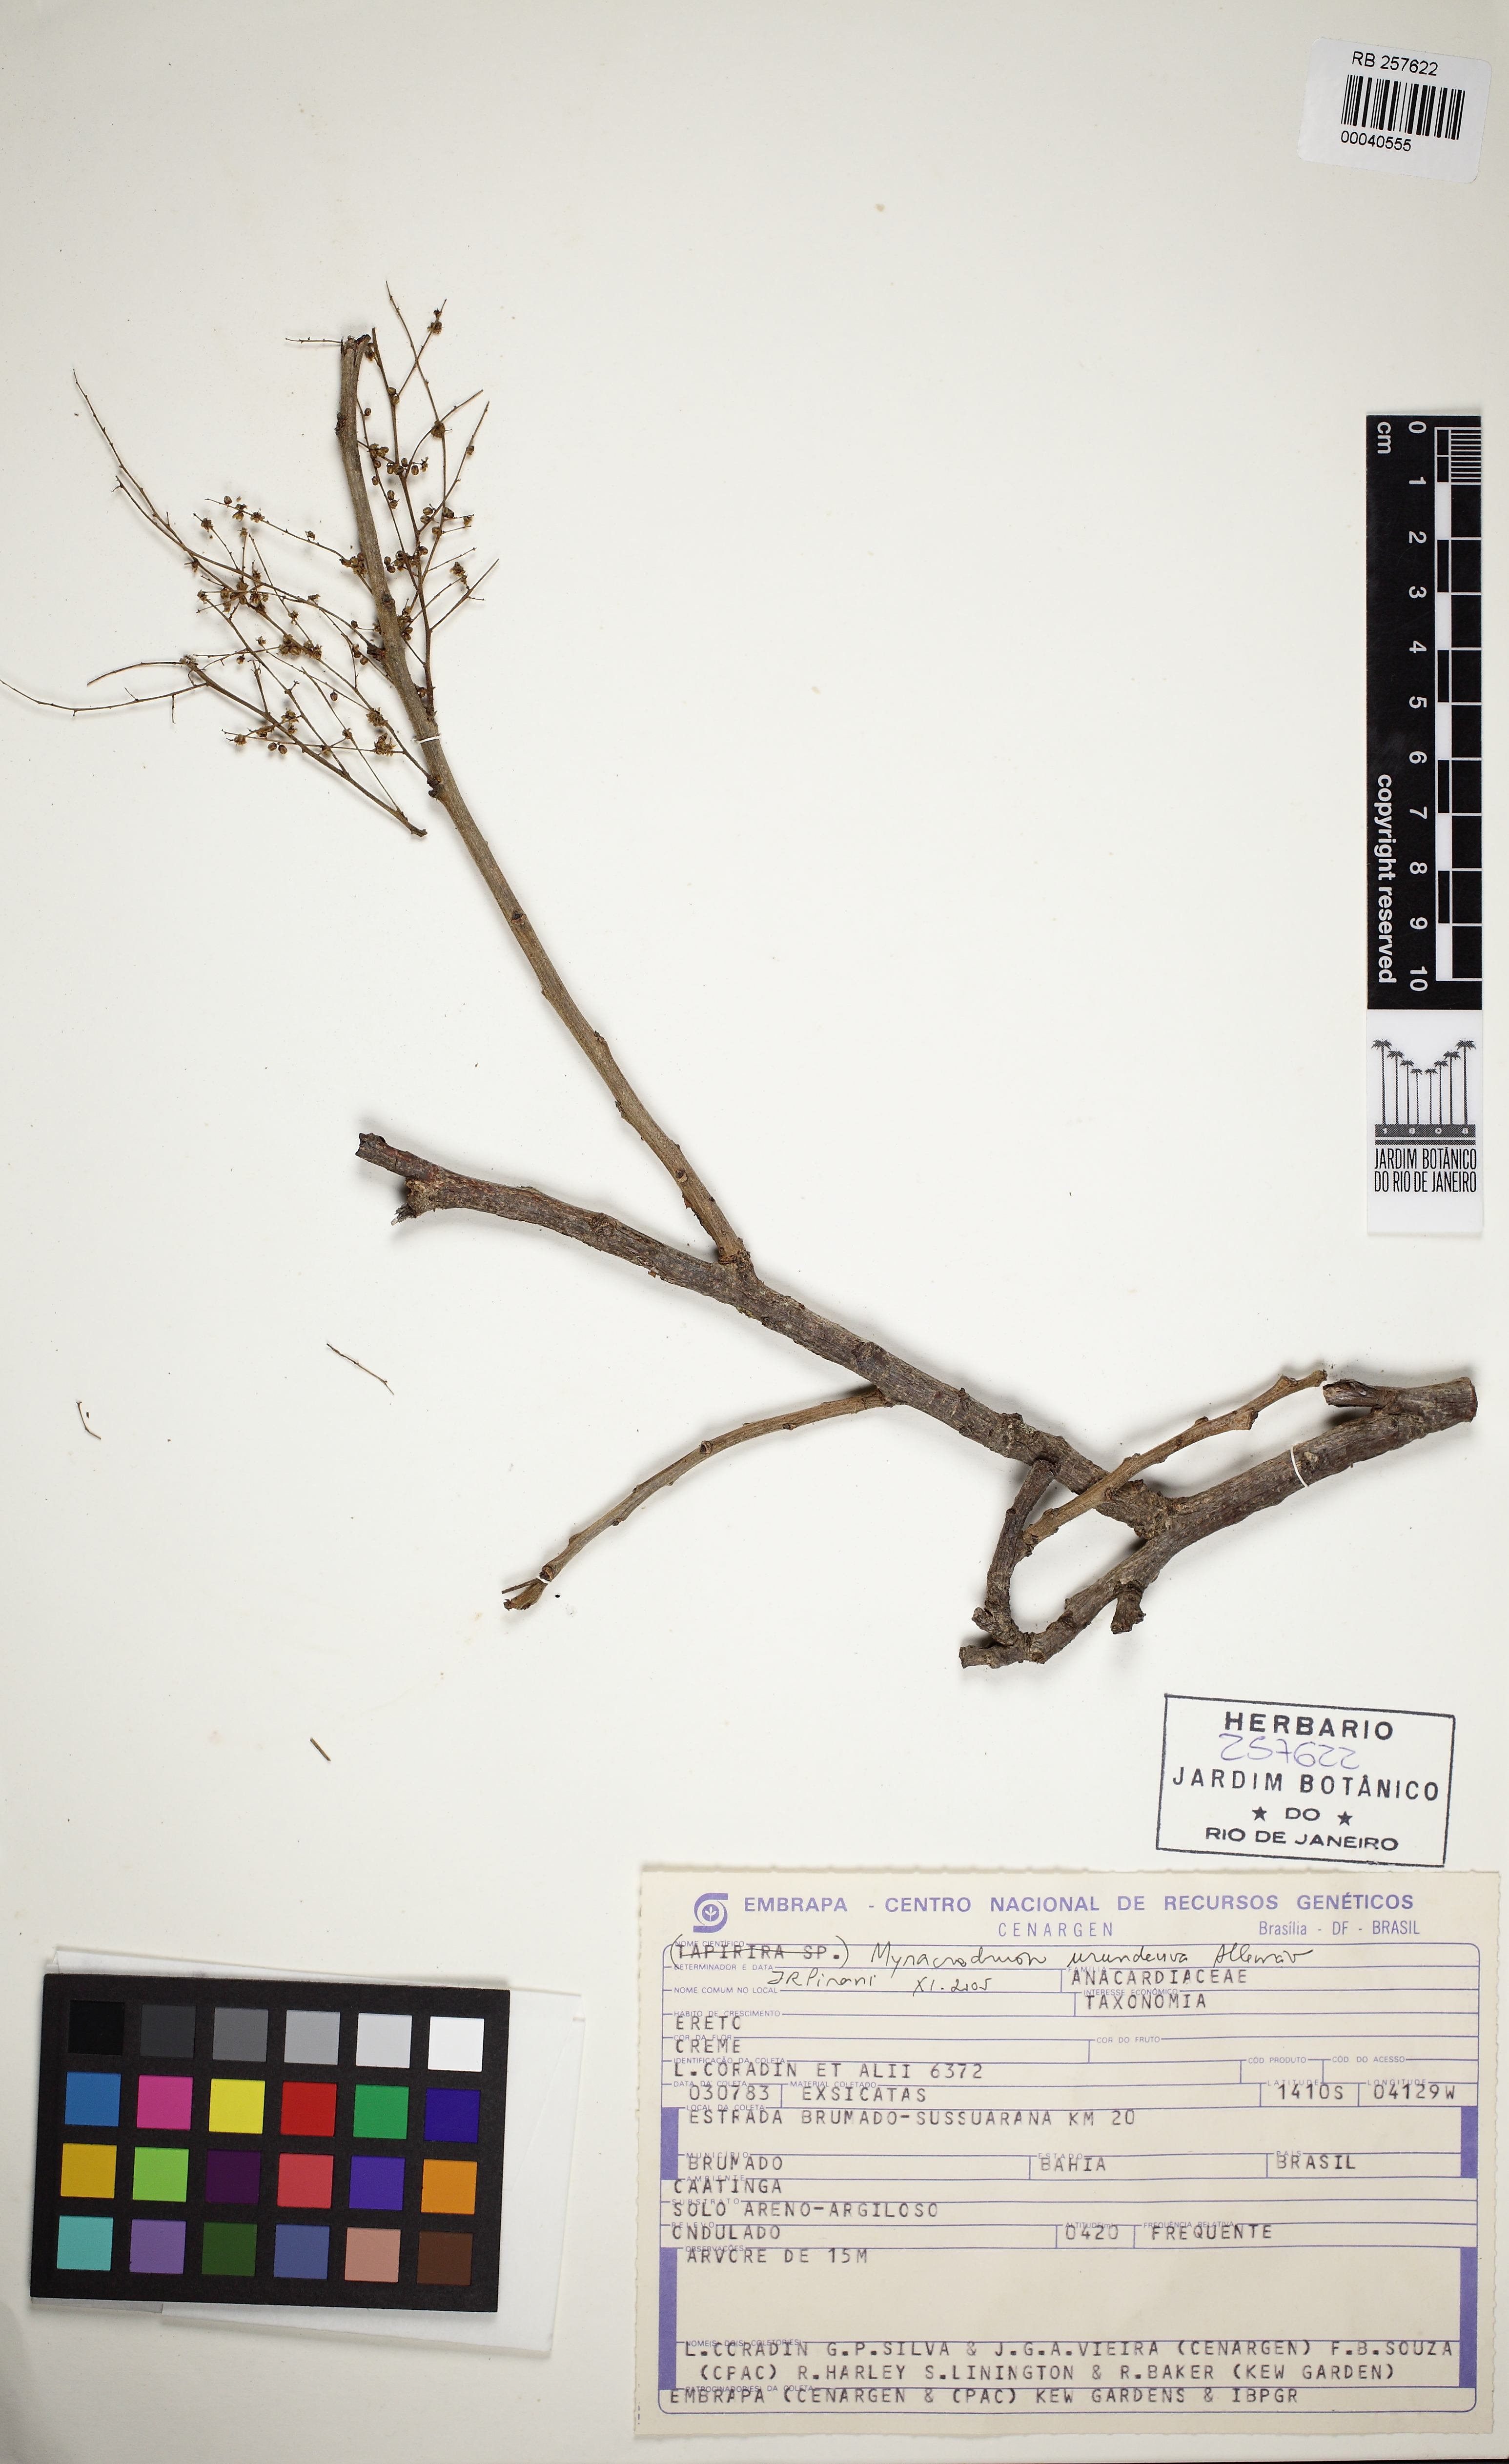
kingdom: Plantae
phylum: Tracheophyta
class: Magnoliopsida
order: Sapindales
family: Anacardiaceae
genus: Myracrodruon
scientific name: Myracrodruon urundeuva
